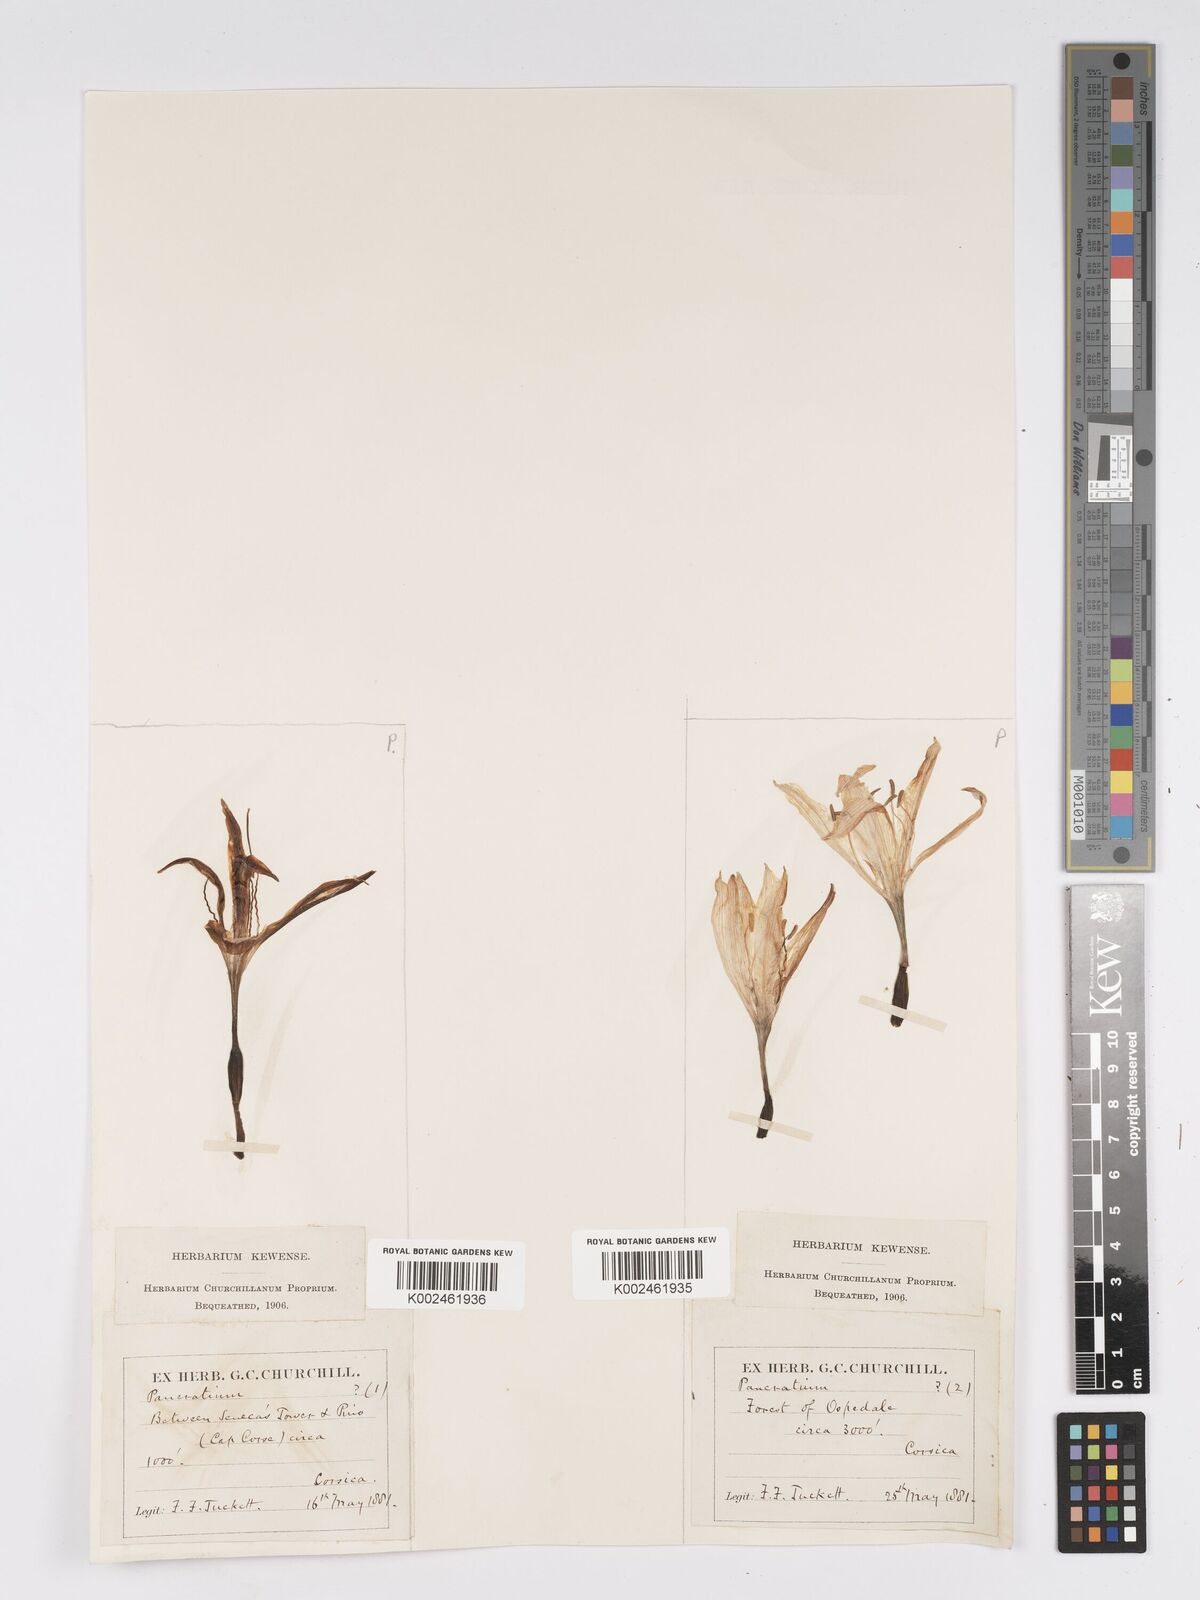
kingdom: Plantae
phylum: Tracheophyta
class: Liliopsida
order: Asparagales
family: Amaryllidaceae
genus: Pancratium
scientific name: Pancratium illyricum
